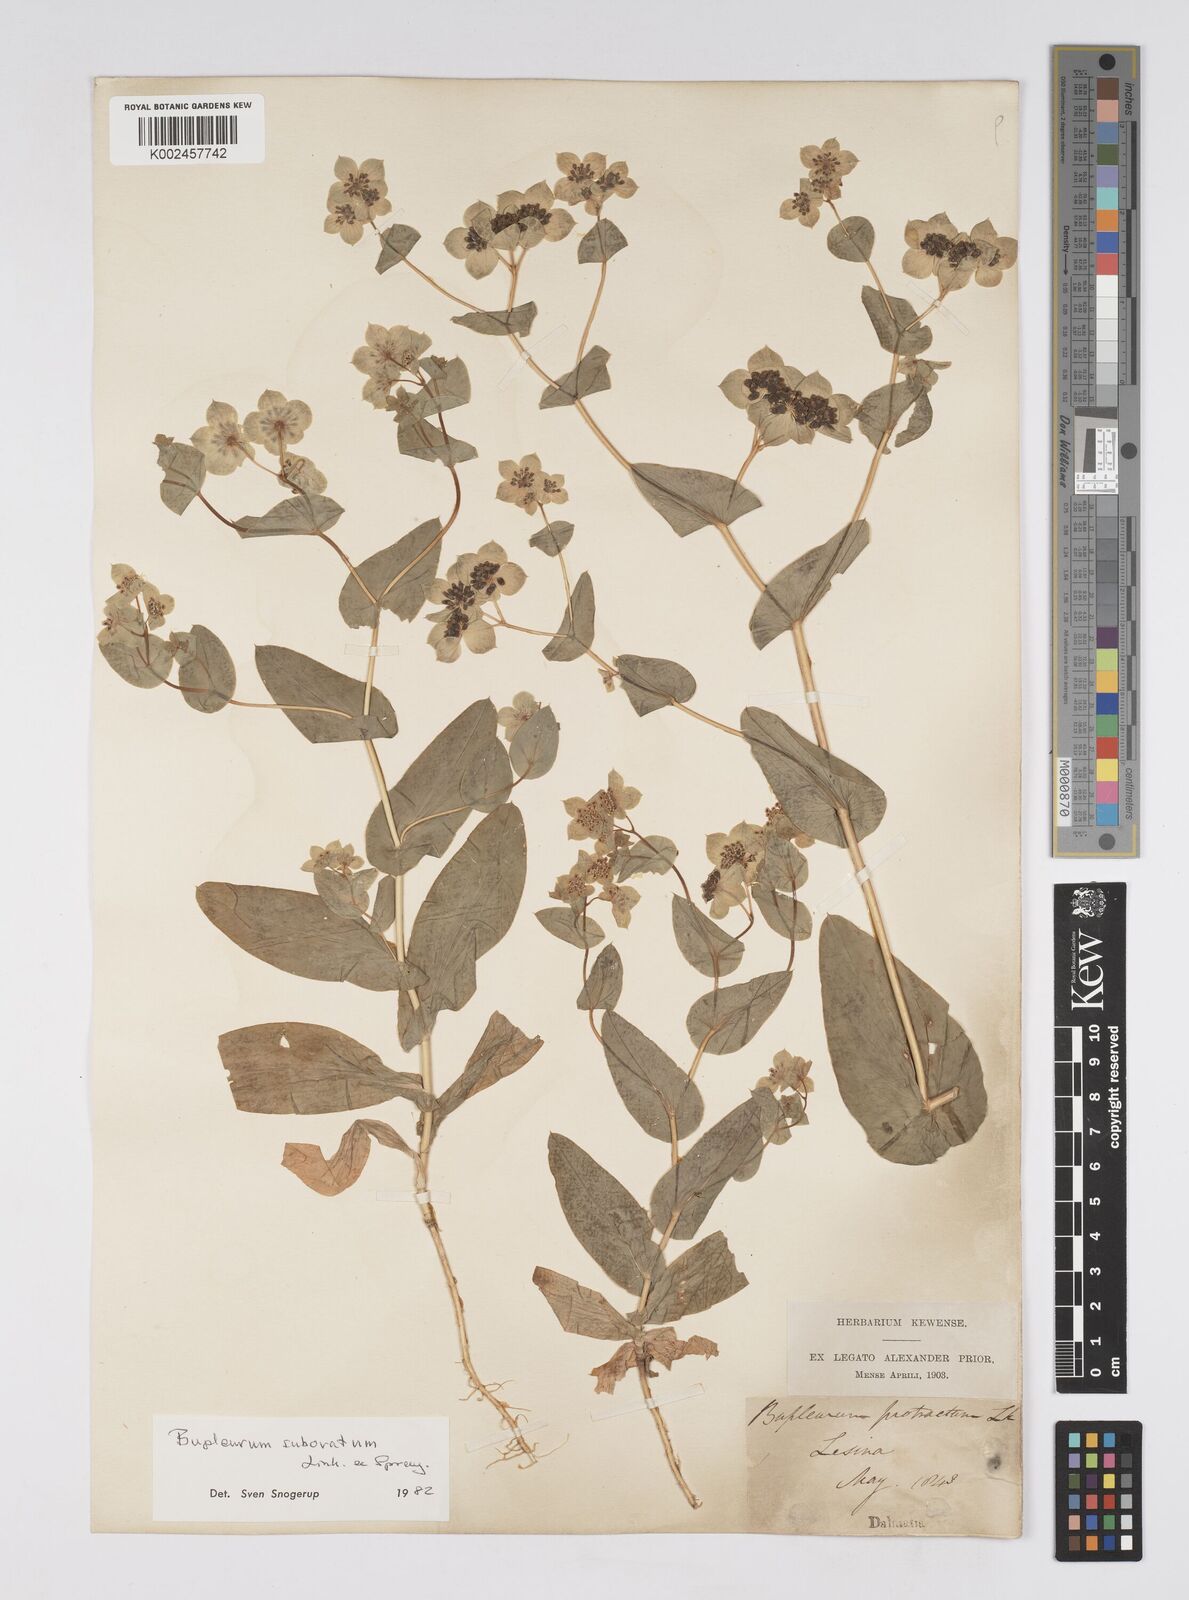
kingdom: Plantae
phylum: Tracheophyta
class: Magnoliopsida
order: Apiales
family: Apiaceae
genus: Bupleurum
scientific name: Bupleurum subovatum
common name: False thorow-wax
